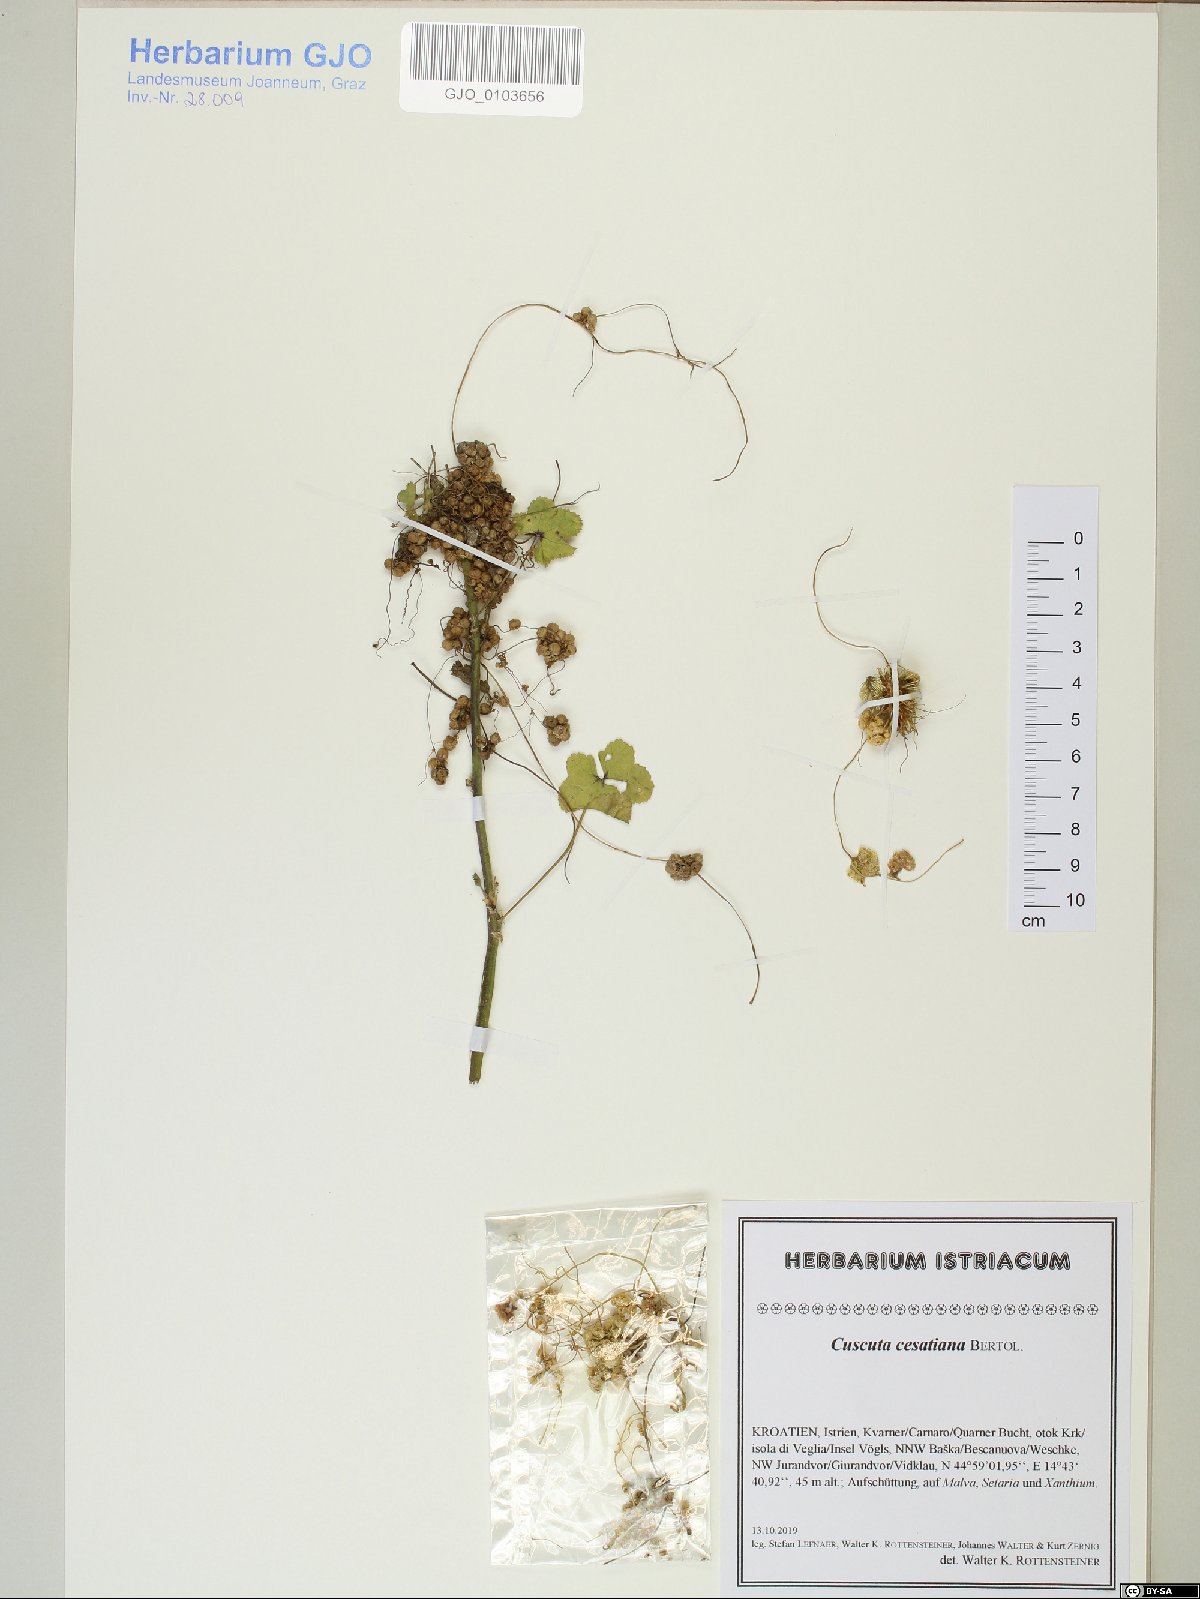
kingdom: Plantae
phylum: Tracheophyta
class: Magnoliopsida
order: Solanales
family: Convolvulaceae
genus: Cuscuta
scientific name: Cuscuta australis
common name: Australian dodder
